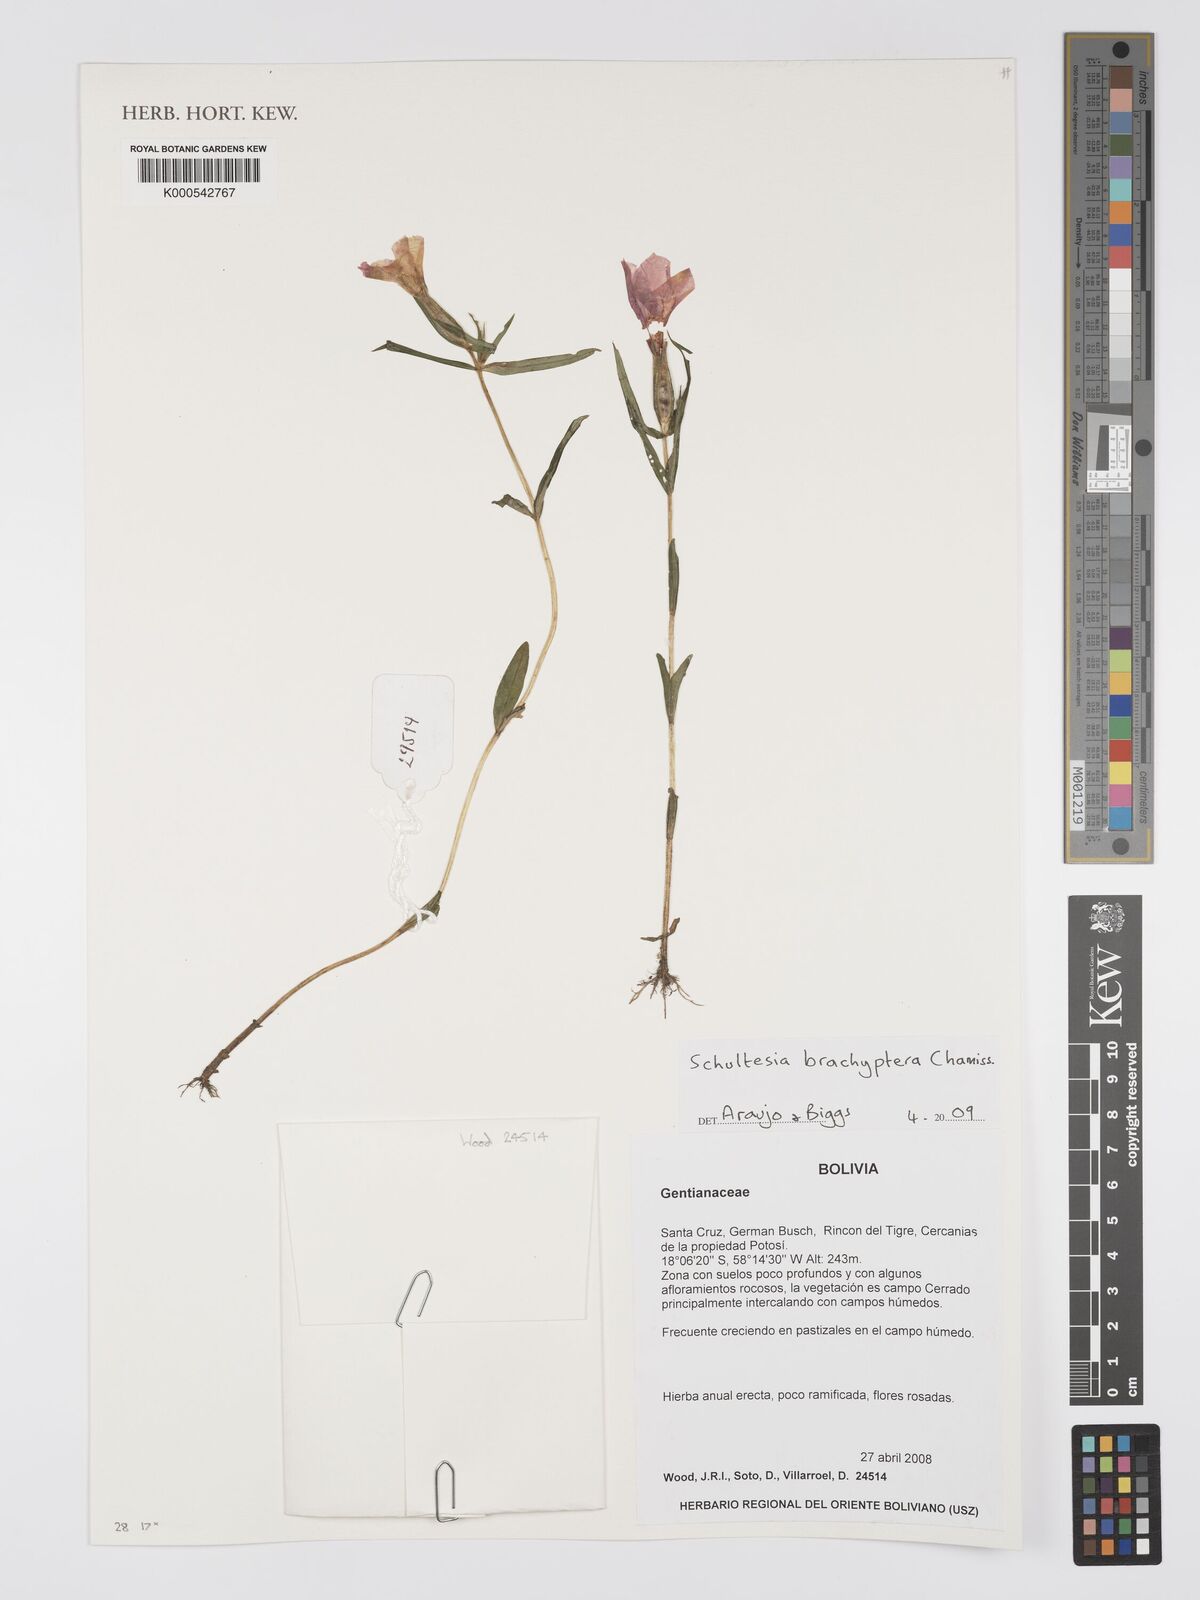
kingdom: Plantae
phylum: Tracheophyta
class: Magnoliopsida
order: Gentianales
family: Gentianaceae
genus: Schultesia
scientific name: Schultesia brachyptera
